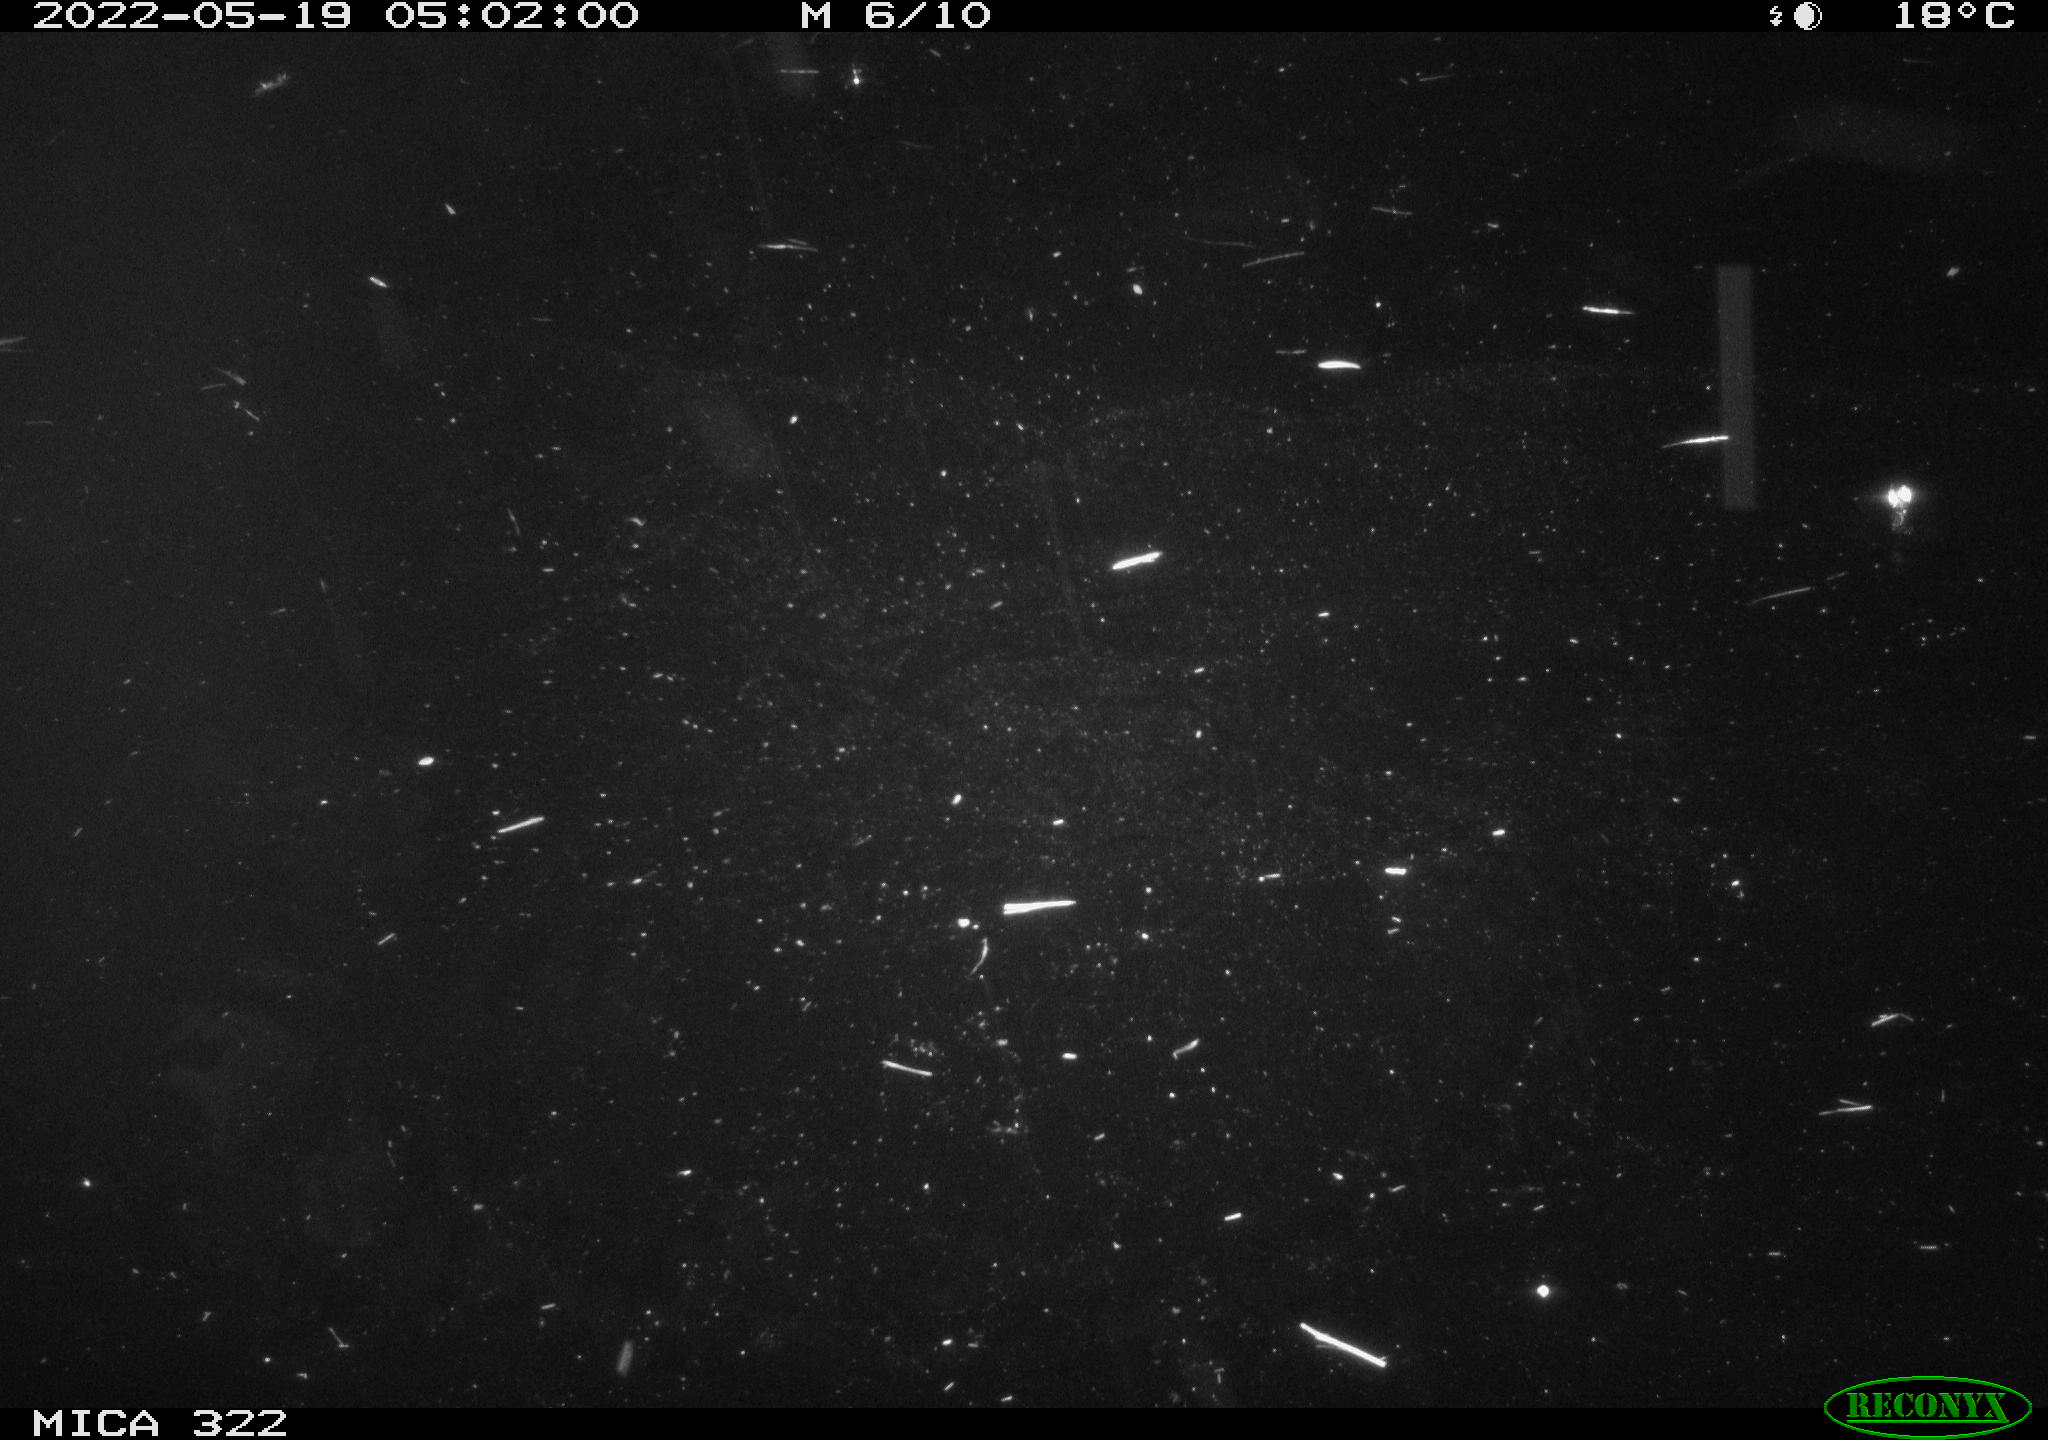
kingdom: Animalia
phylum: Chordata
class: Aves
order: Anseriformes
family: Anatidae
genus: Mareca
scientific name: Mareca strepera
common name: Gadwall
